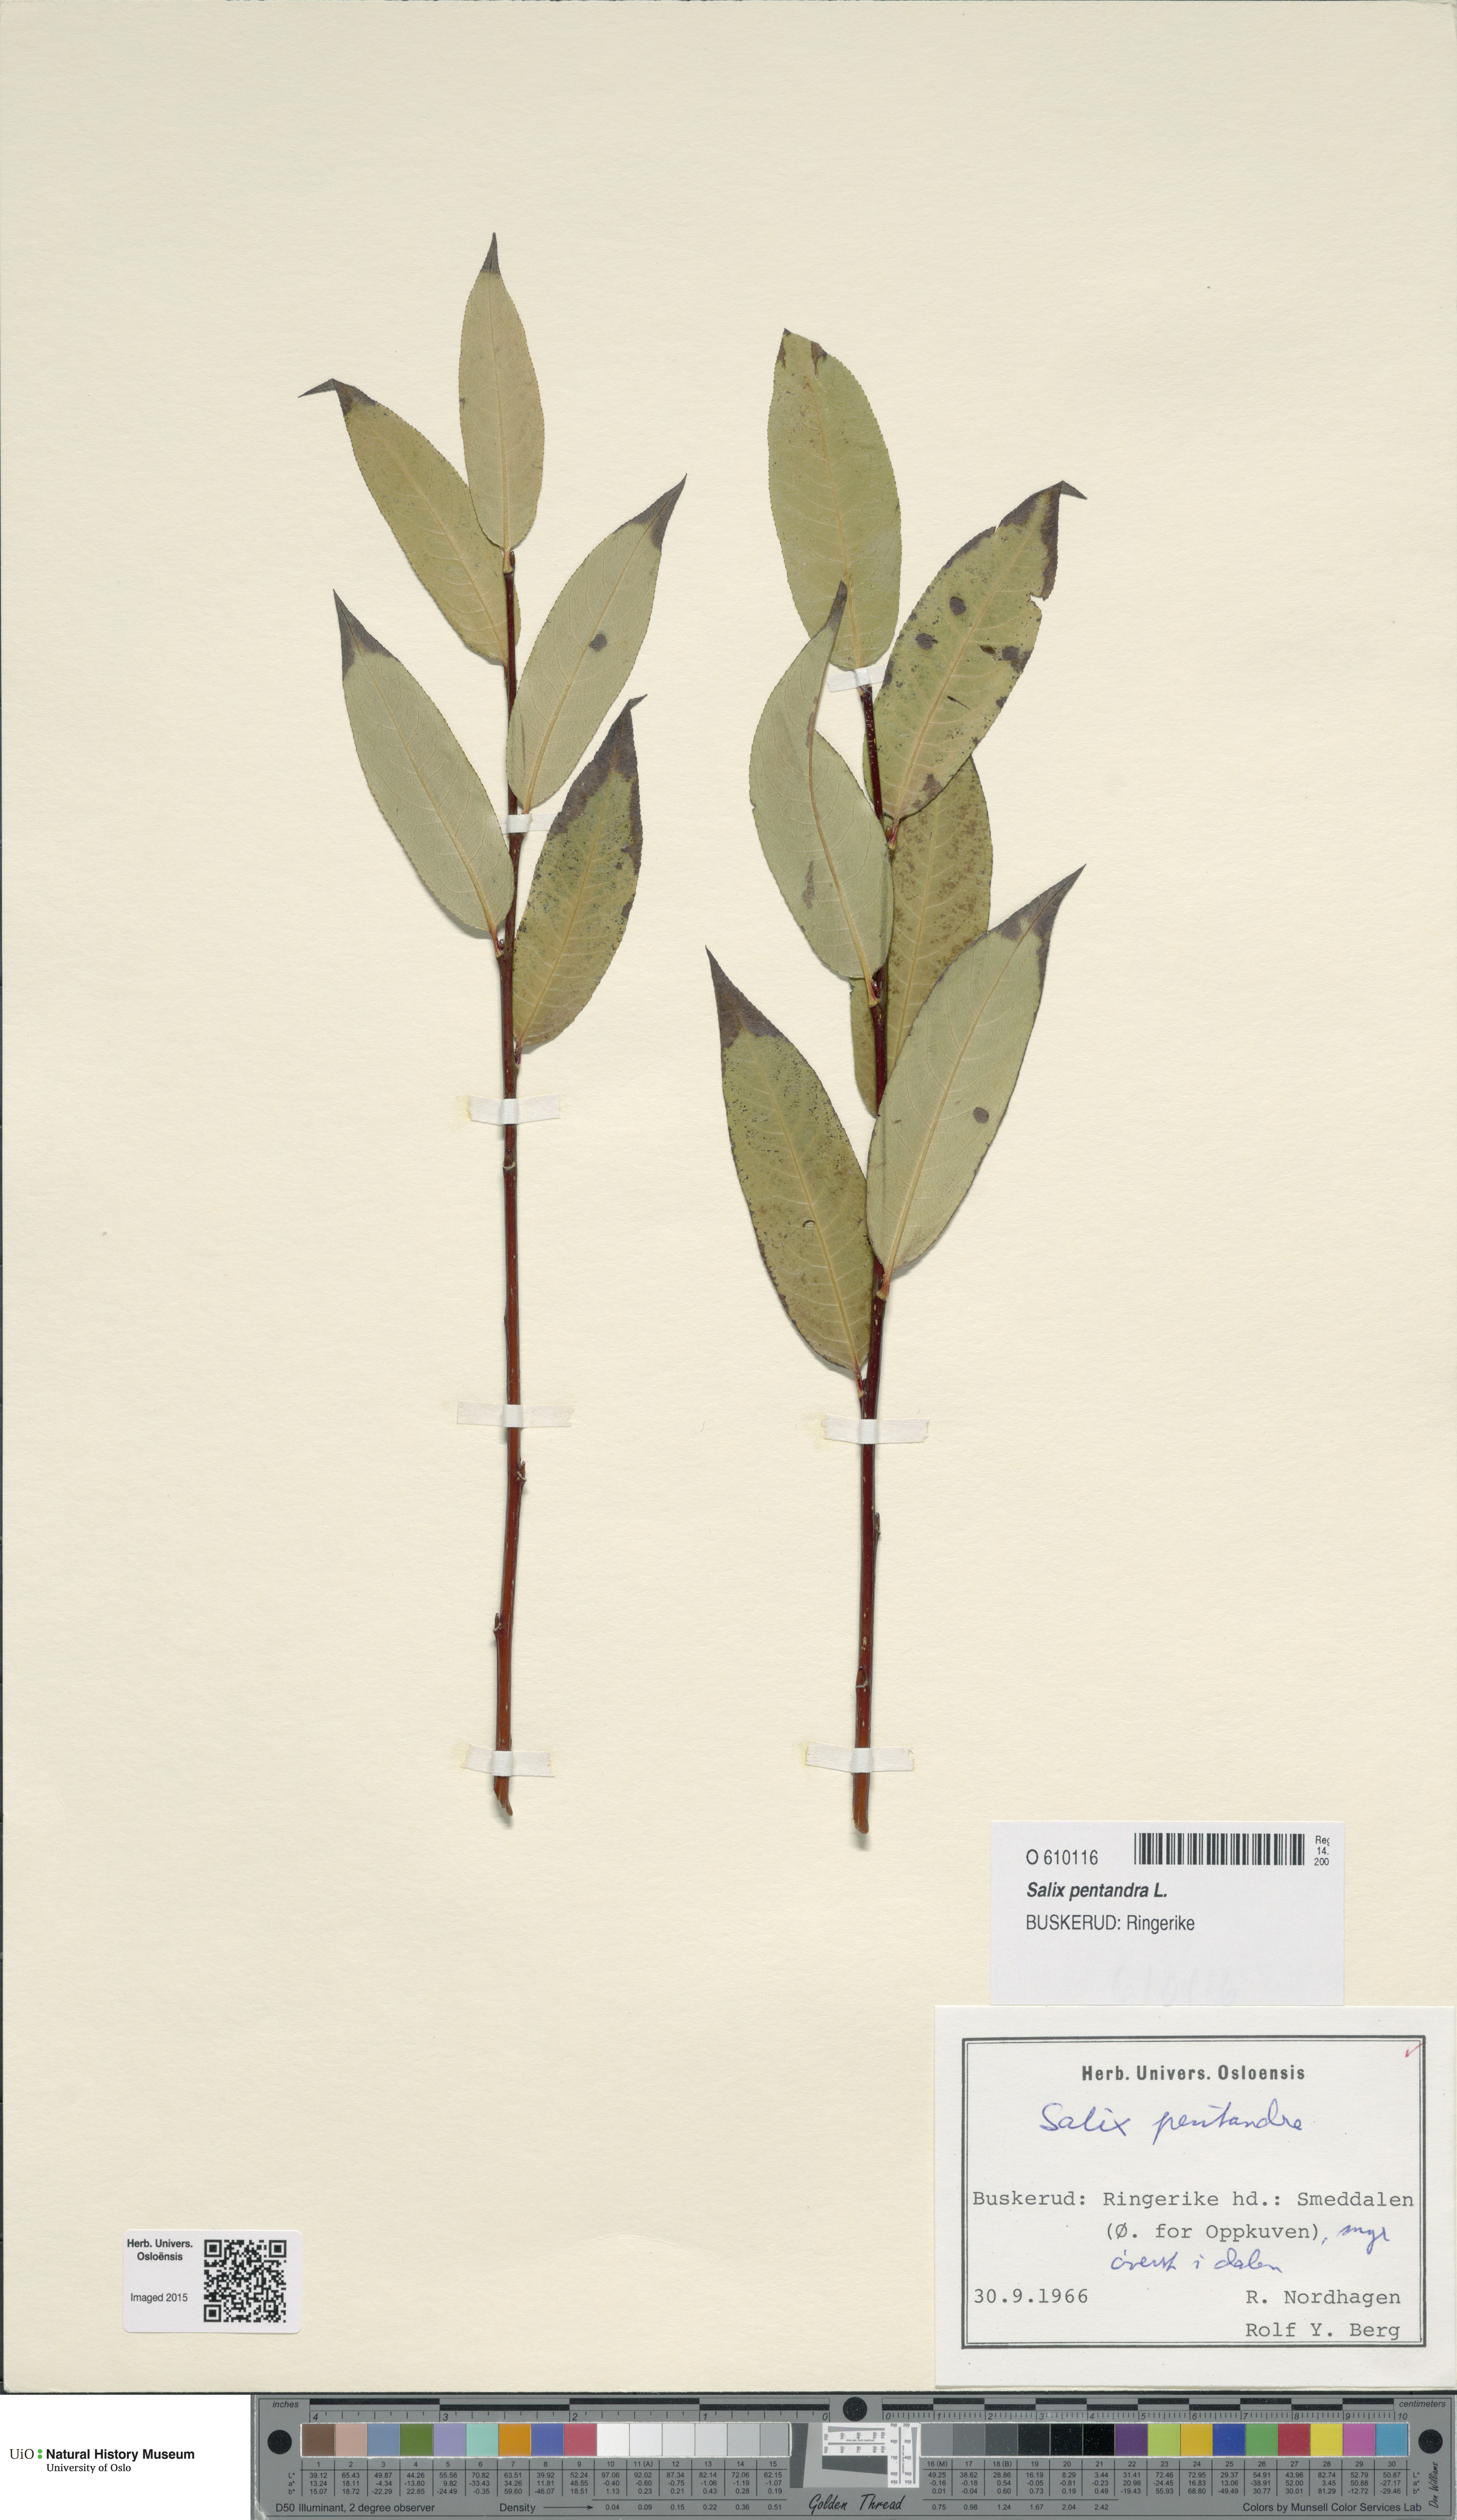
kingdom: Plantae
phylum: Tracheophyta
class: Magnoliopsida
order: Malpighiales
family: Salicaceae
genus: Salix
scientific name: Salix pentandra
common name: Bay willow
